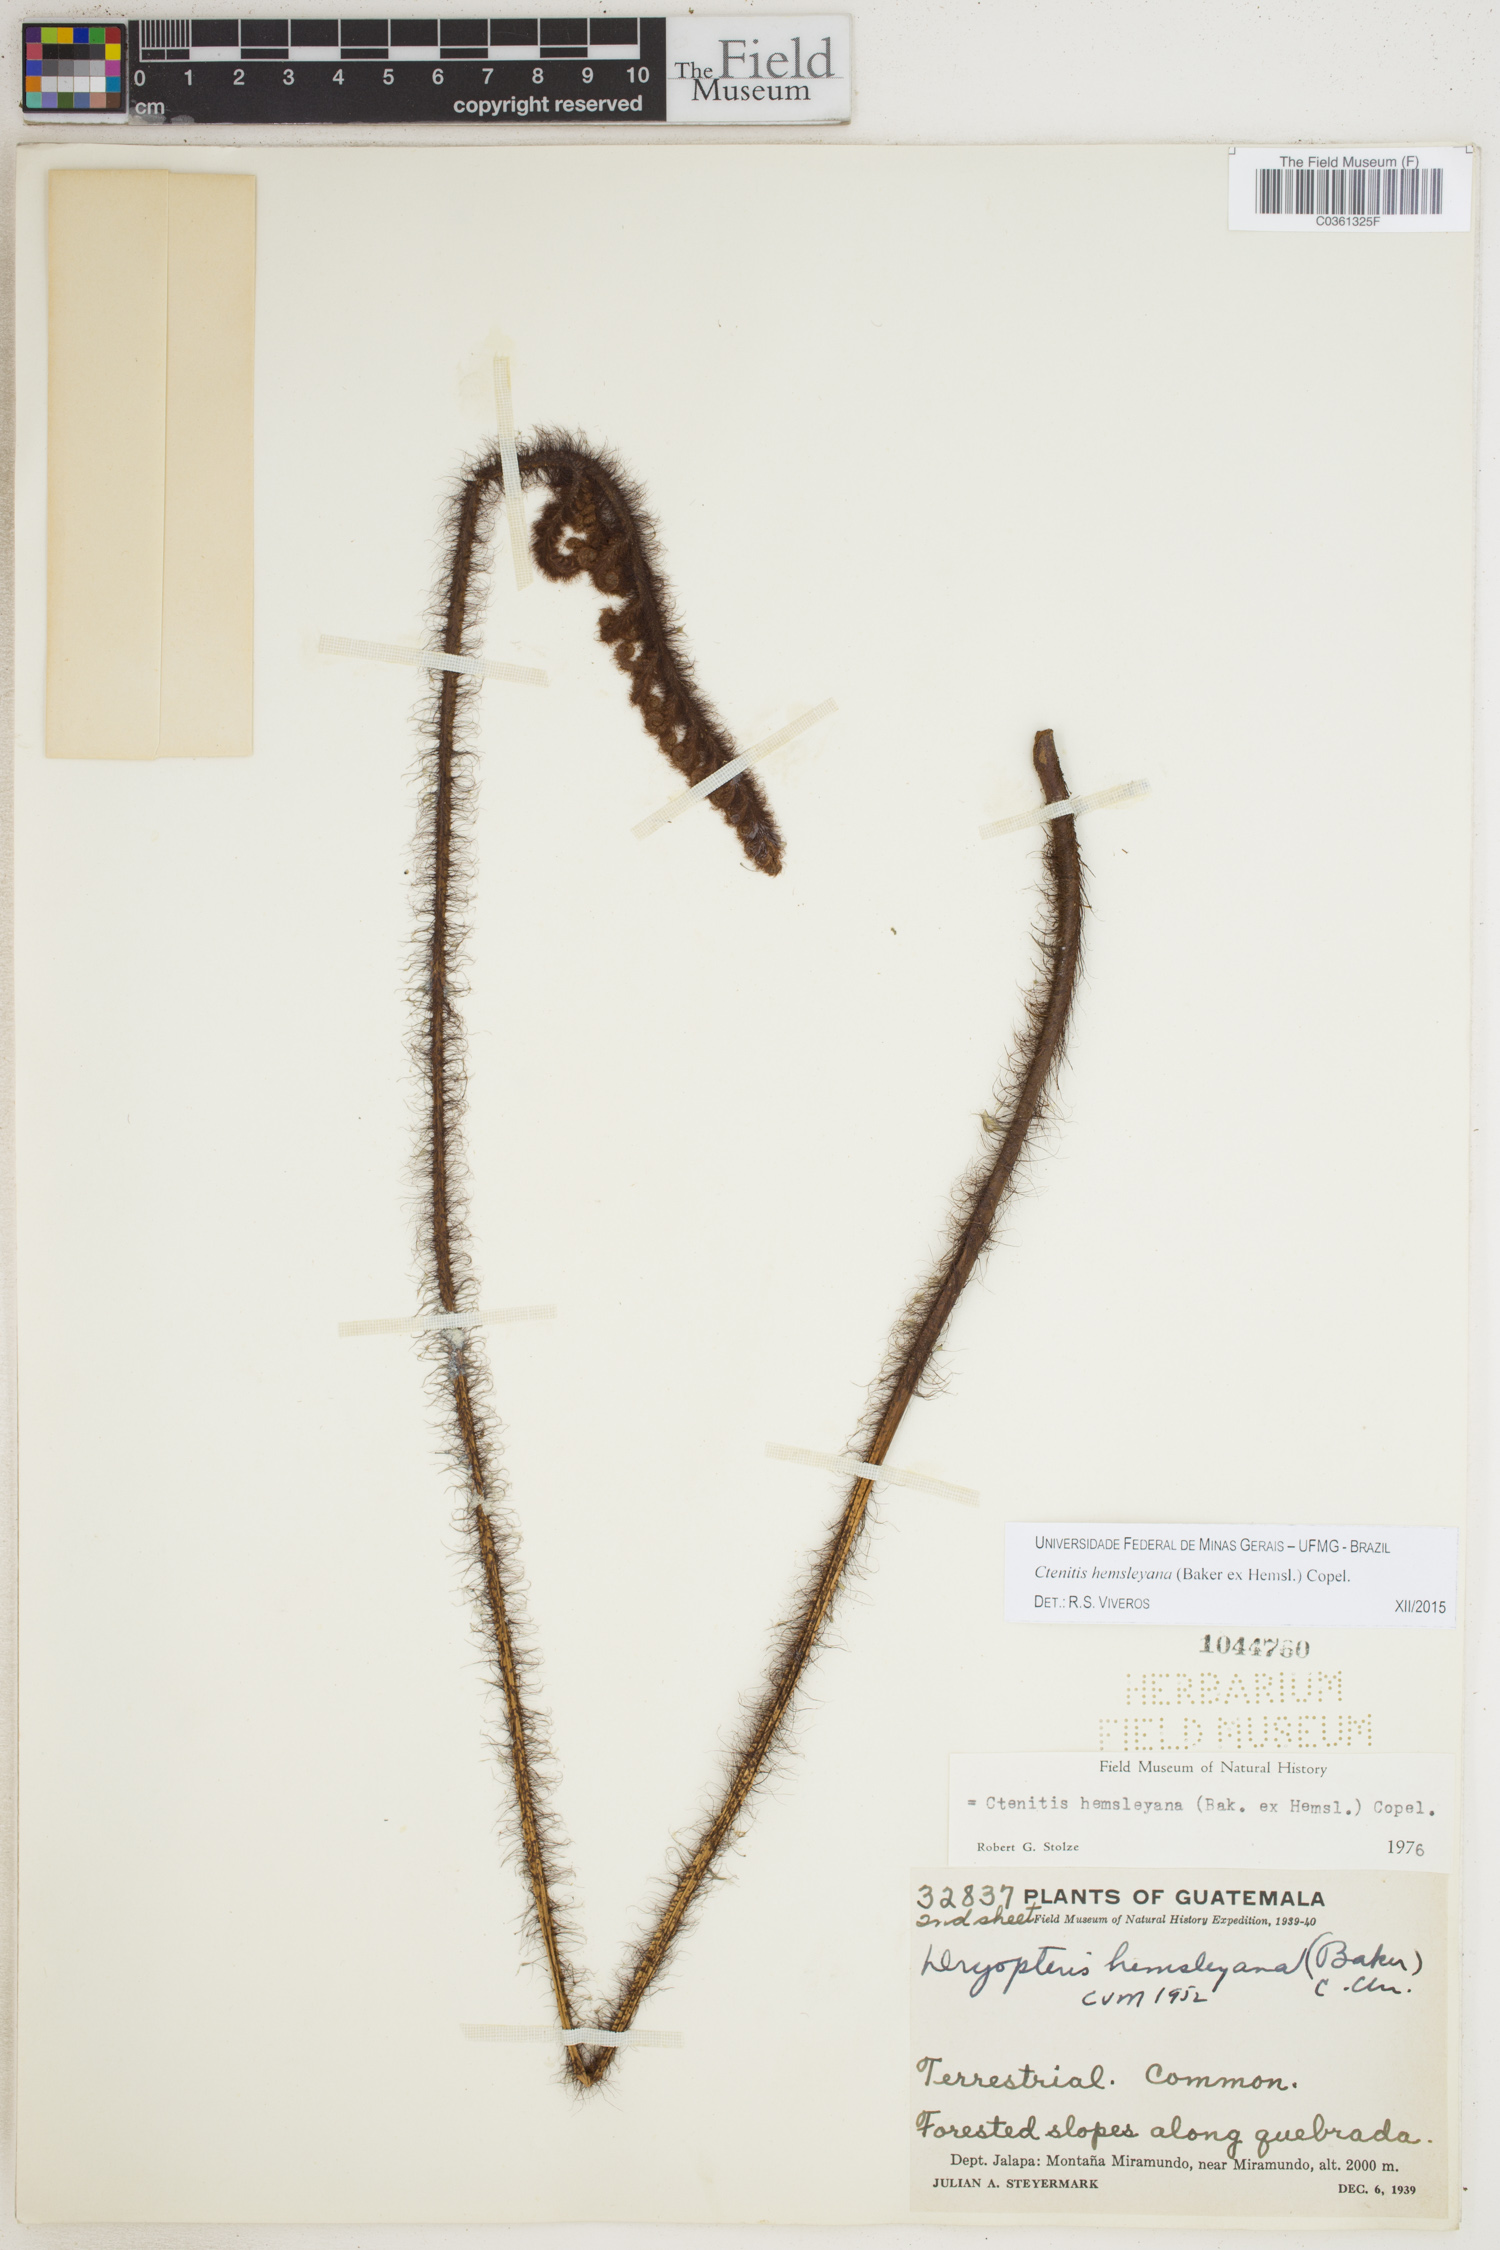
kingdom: Plantae
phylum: Tracheophyta
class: Polypodiopsida
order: Polypodiales
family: Dryopteridaceae
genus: Ctenitis
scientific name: Ctenitis hemsleyana
